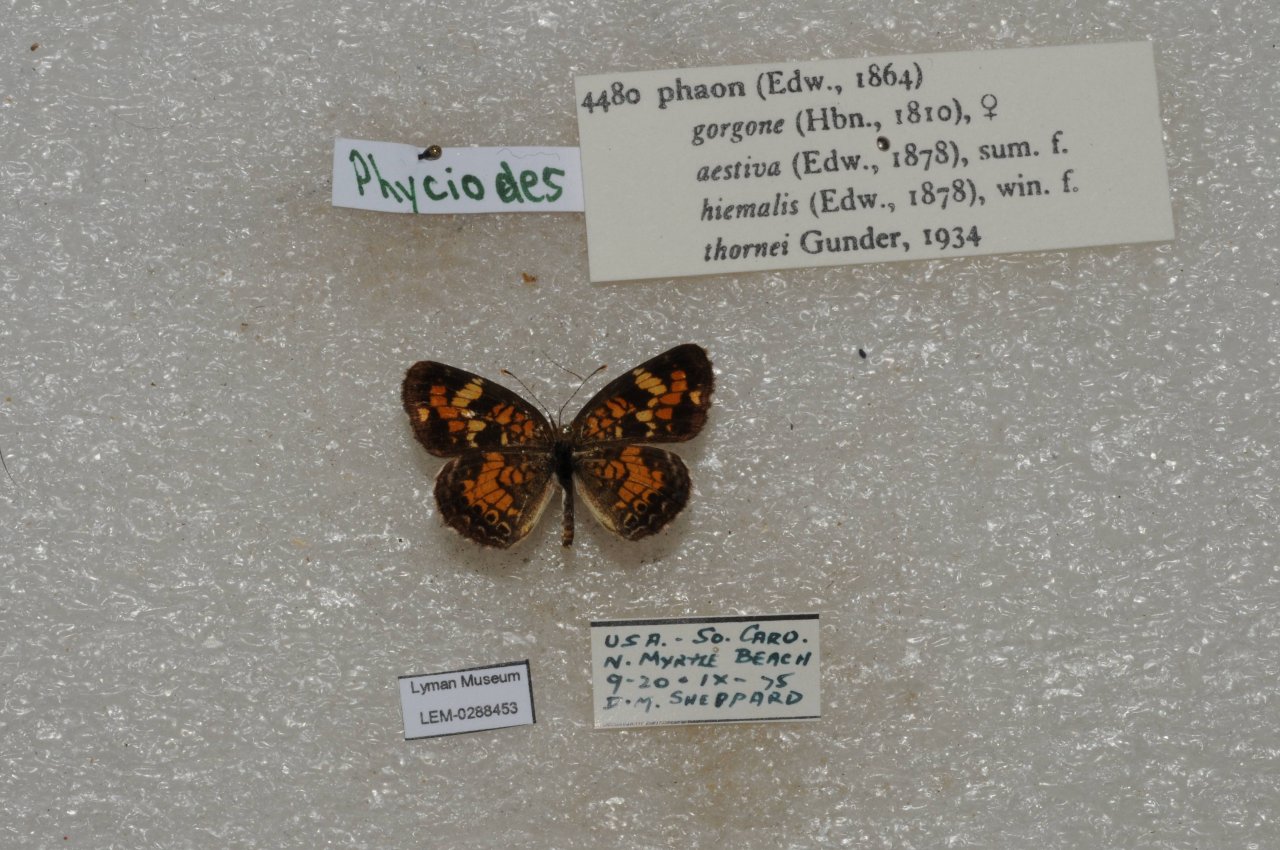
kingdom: Animalia
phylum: Arthropoda
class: Insecta
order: Lepidoptera
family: Nymphalidae
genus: Phyciodes
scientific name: Phyciodes phaon
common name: Phaon Crescent
